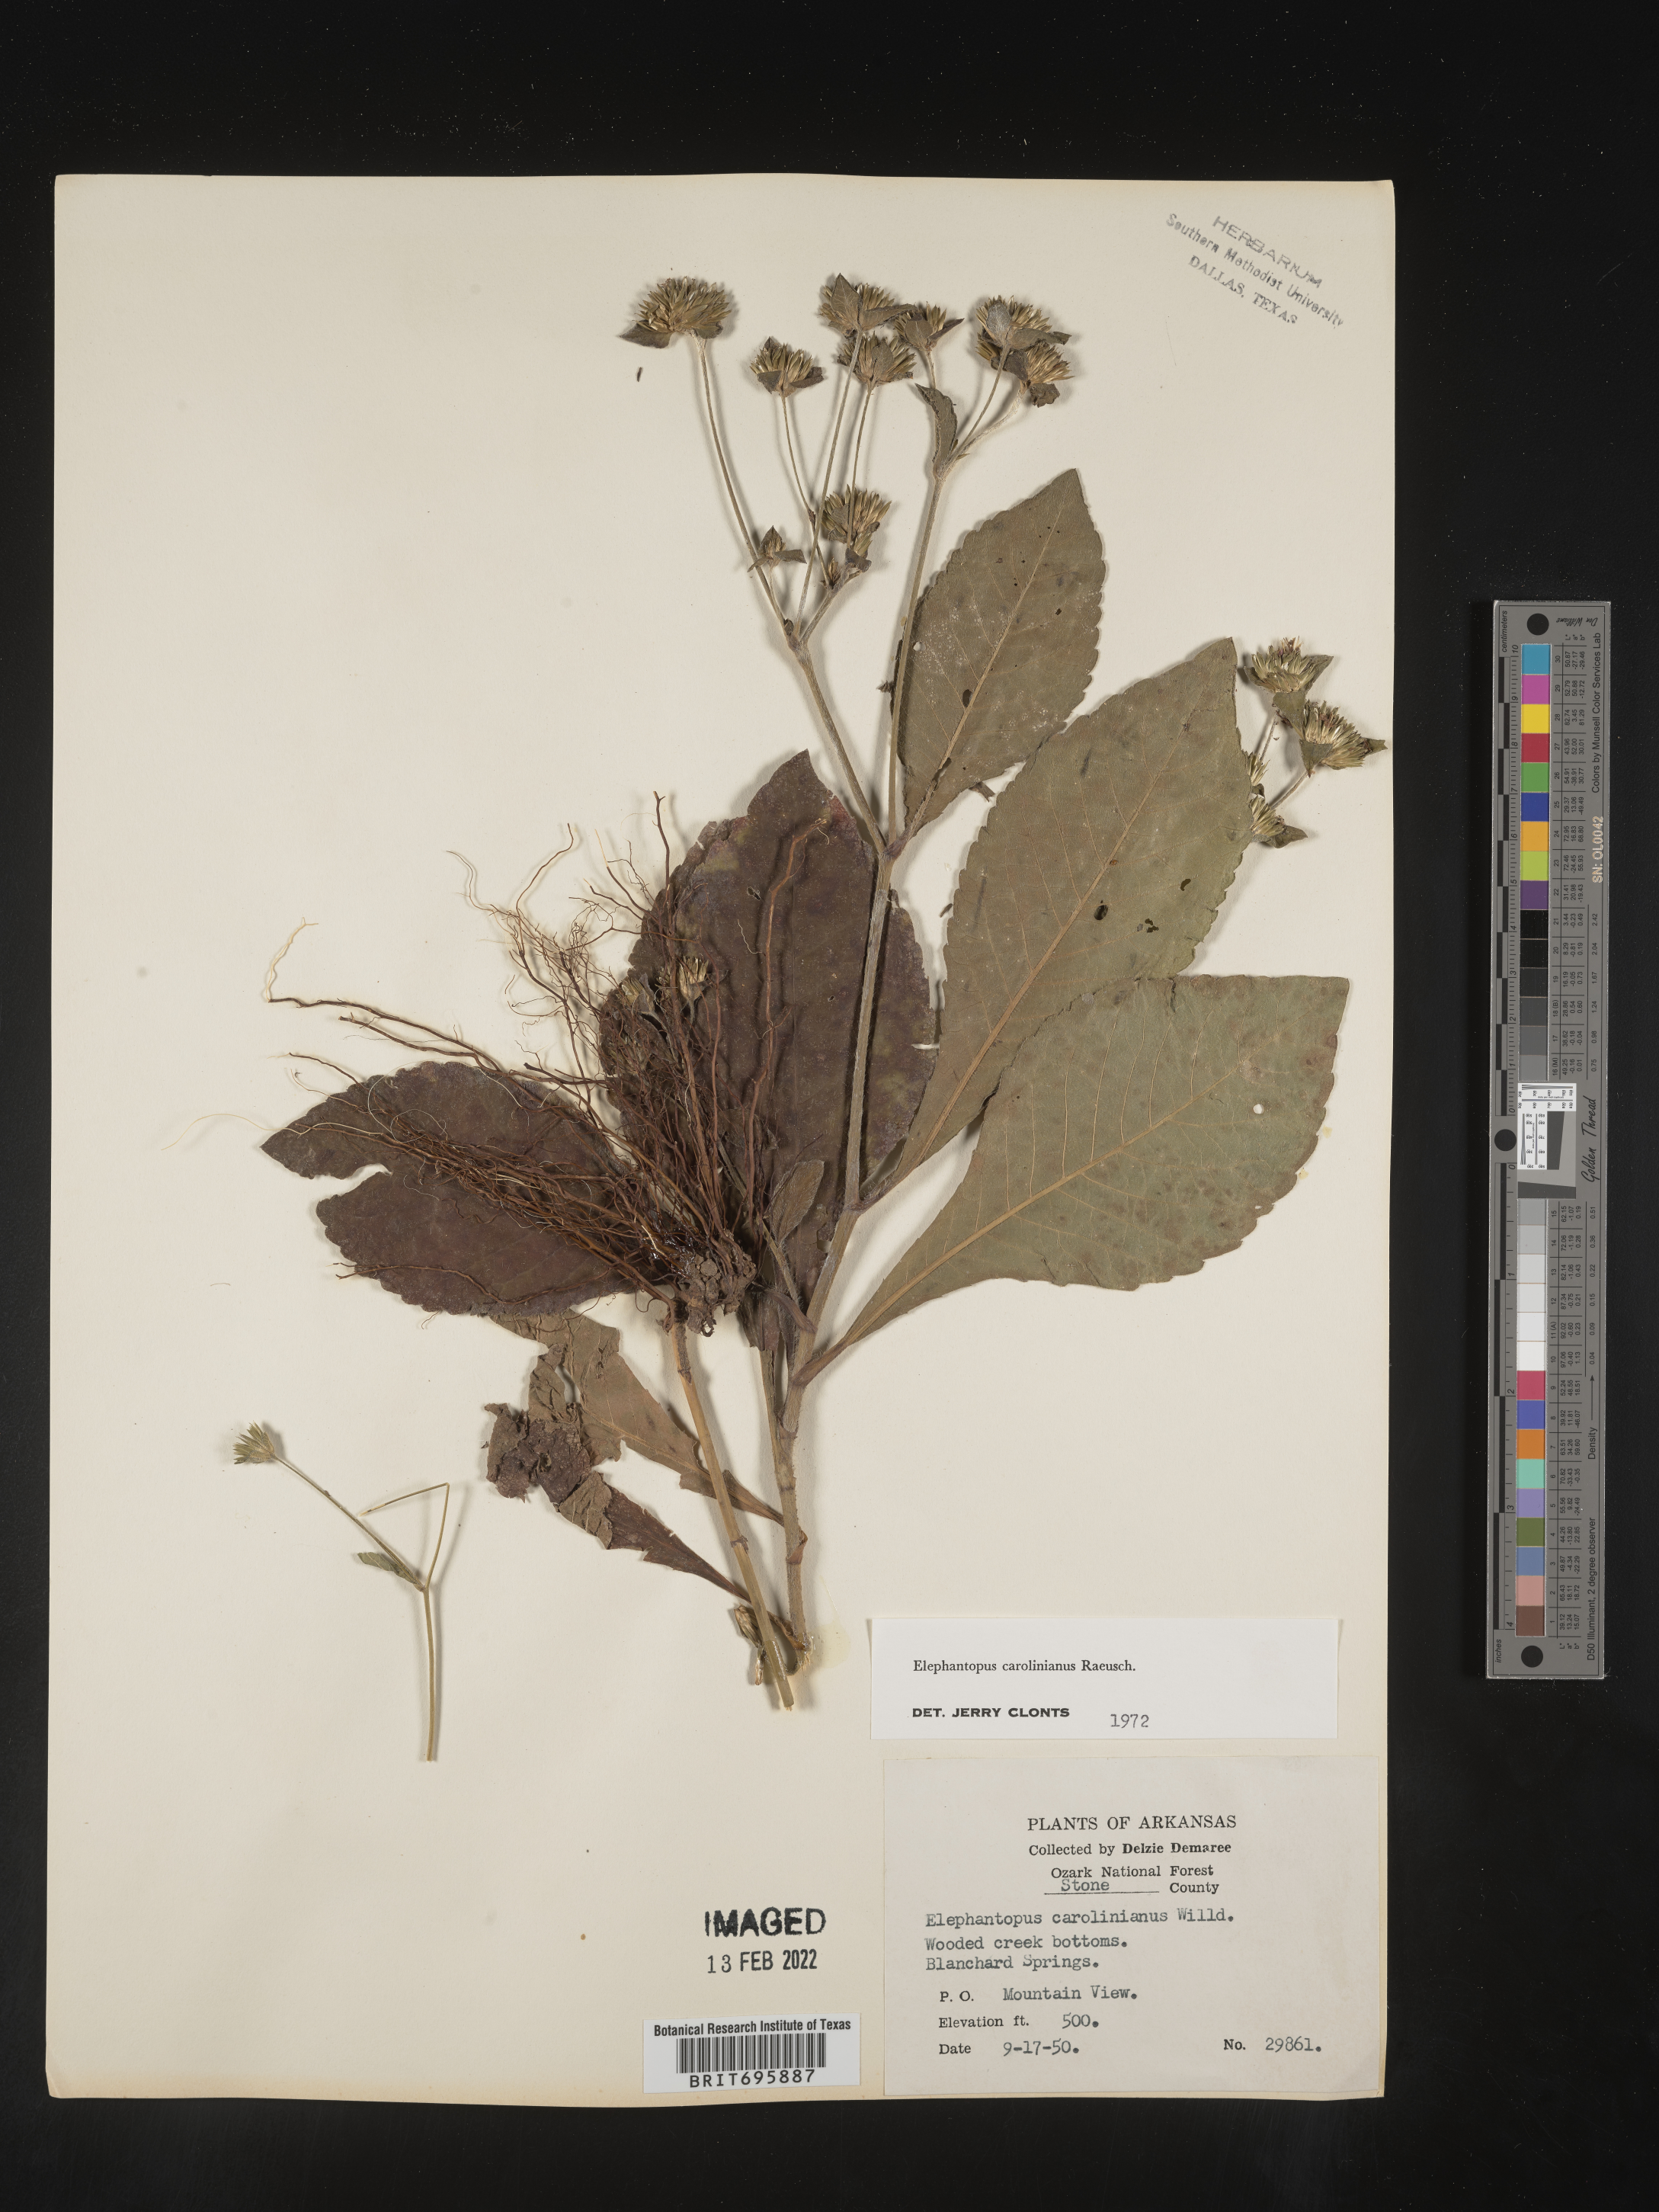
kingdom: Plantae
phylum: Tracheophyta
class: Magnoliopsida
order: Asterales
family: Asteraceae
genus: Elephantopus
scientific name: Elephantopus carolinianus
